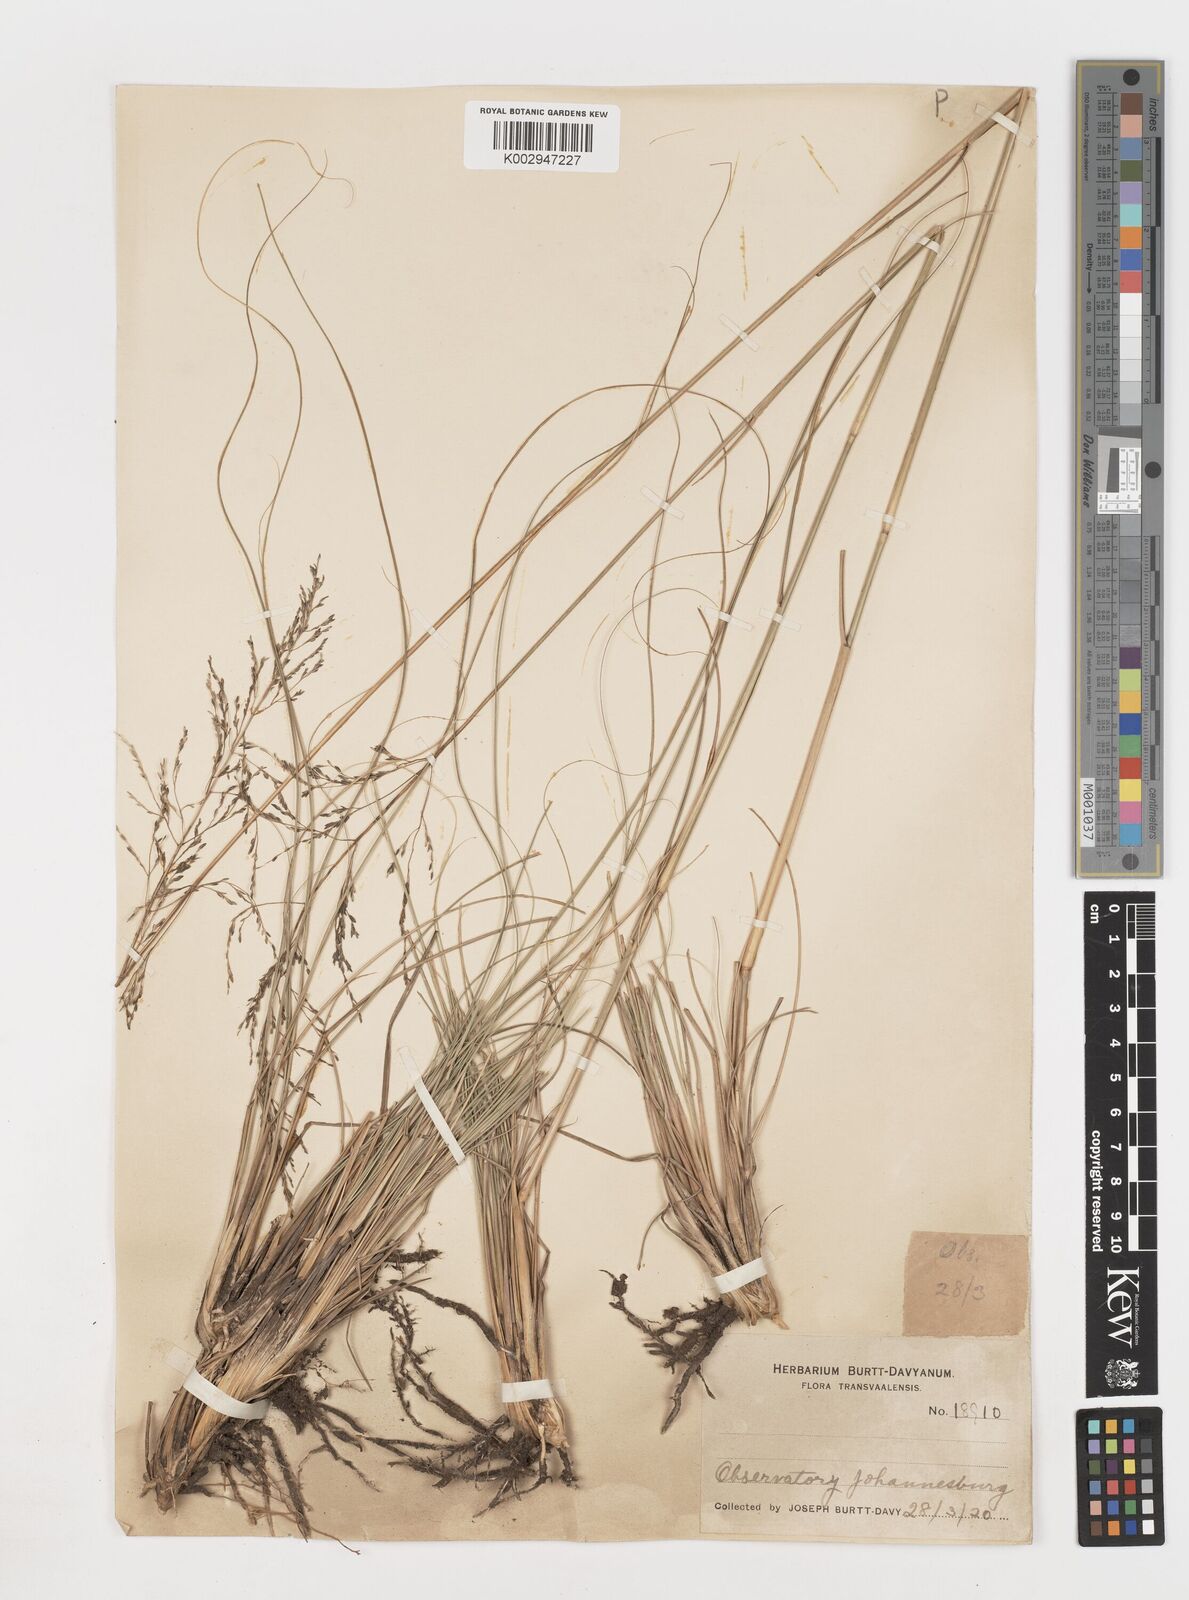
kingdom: Plantae
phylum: Tracheophyta
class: Liliopsida
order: Poales
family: Poaceae
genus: Eragrostis
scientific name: Eragrostis
